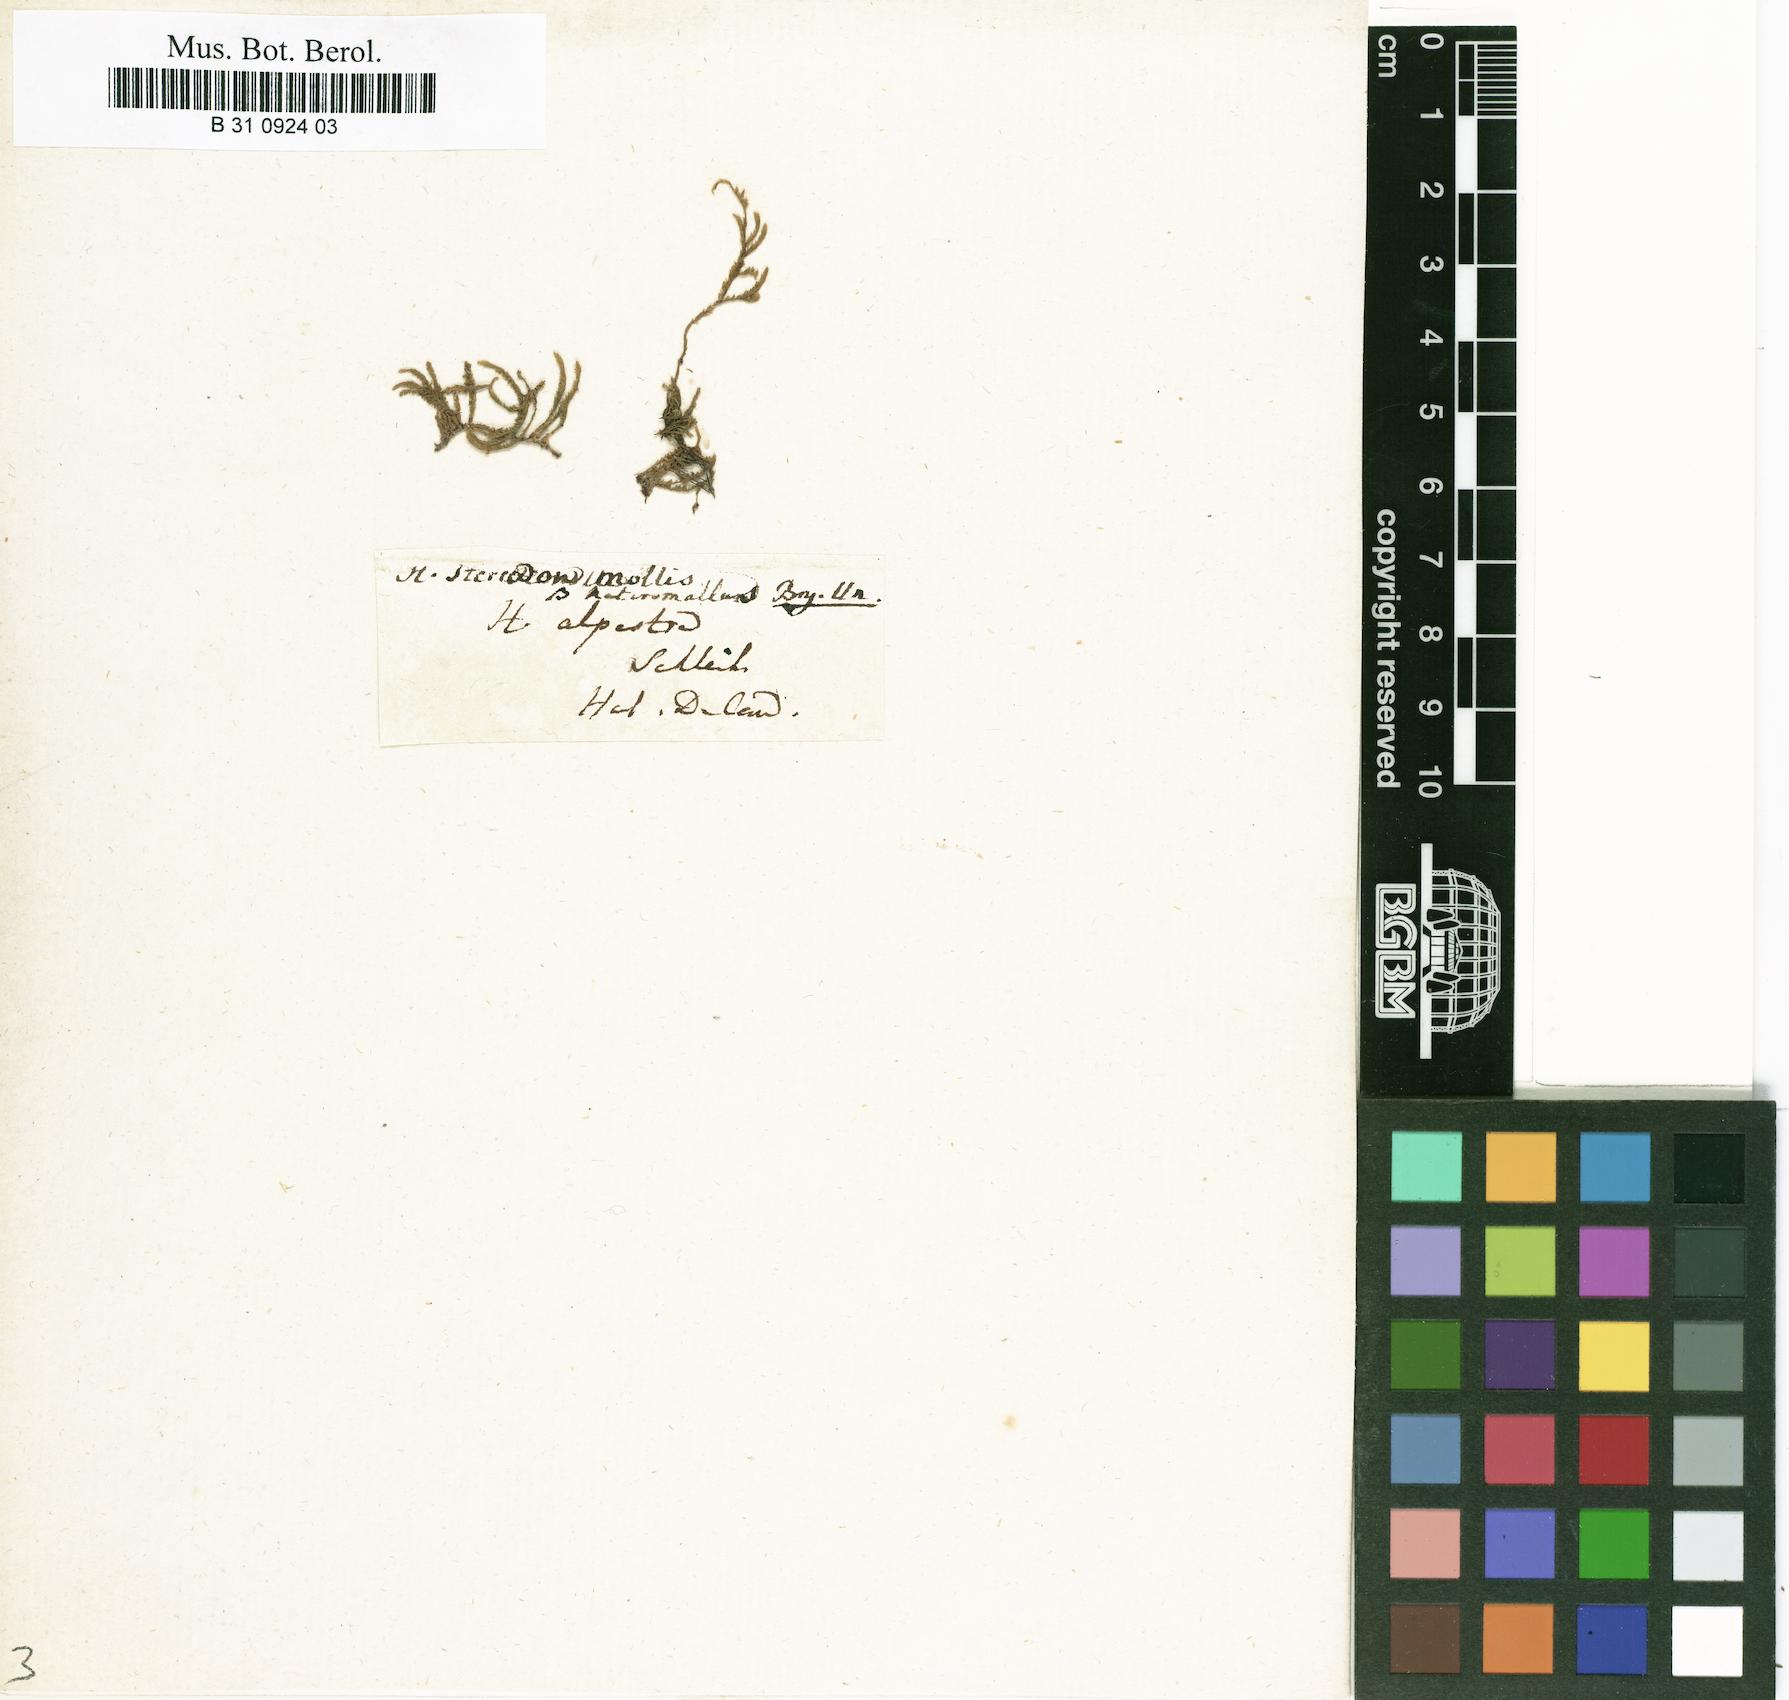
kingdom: Plantae
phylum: Bryophyta
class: Bryopsida
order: Hypnales
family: Lembophyllaceae
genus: Weymouthia
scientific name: Weymouthia mollis
